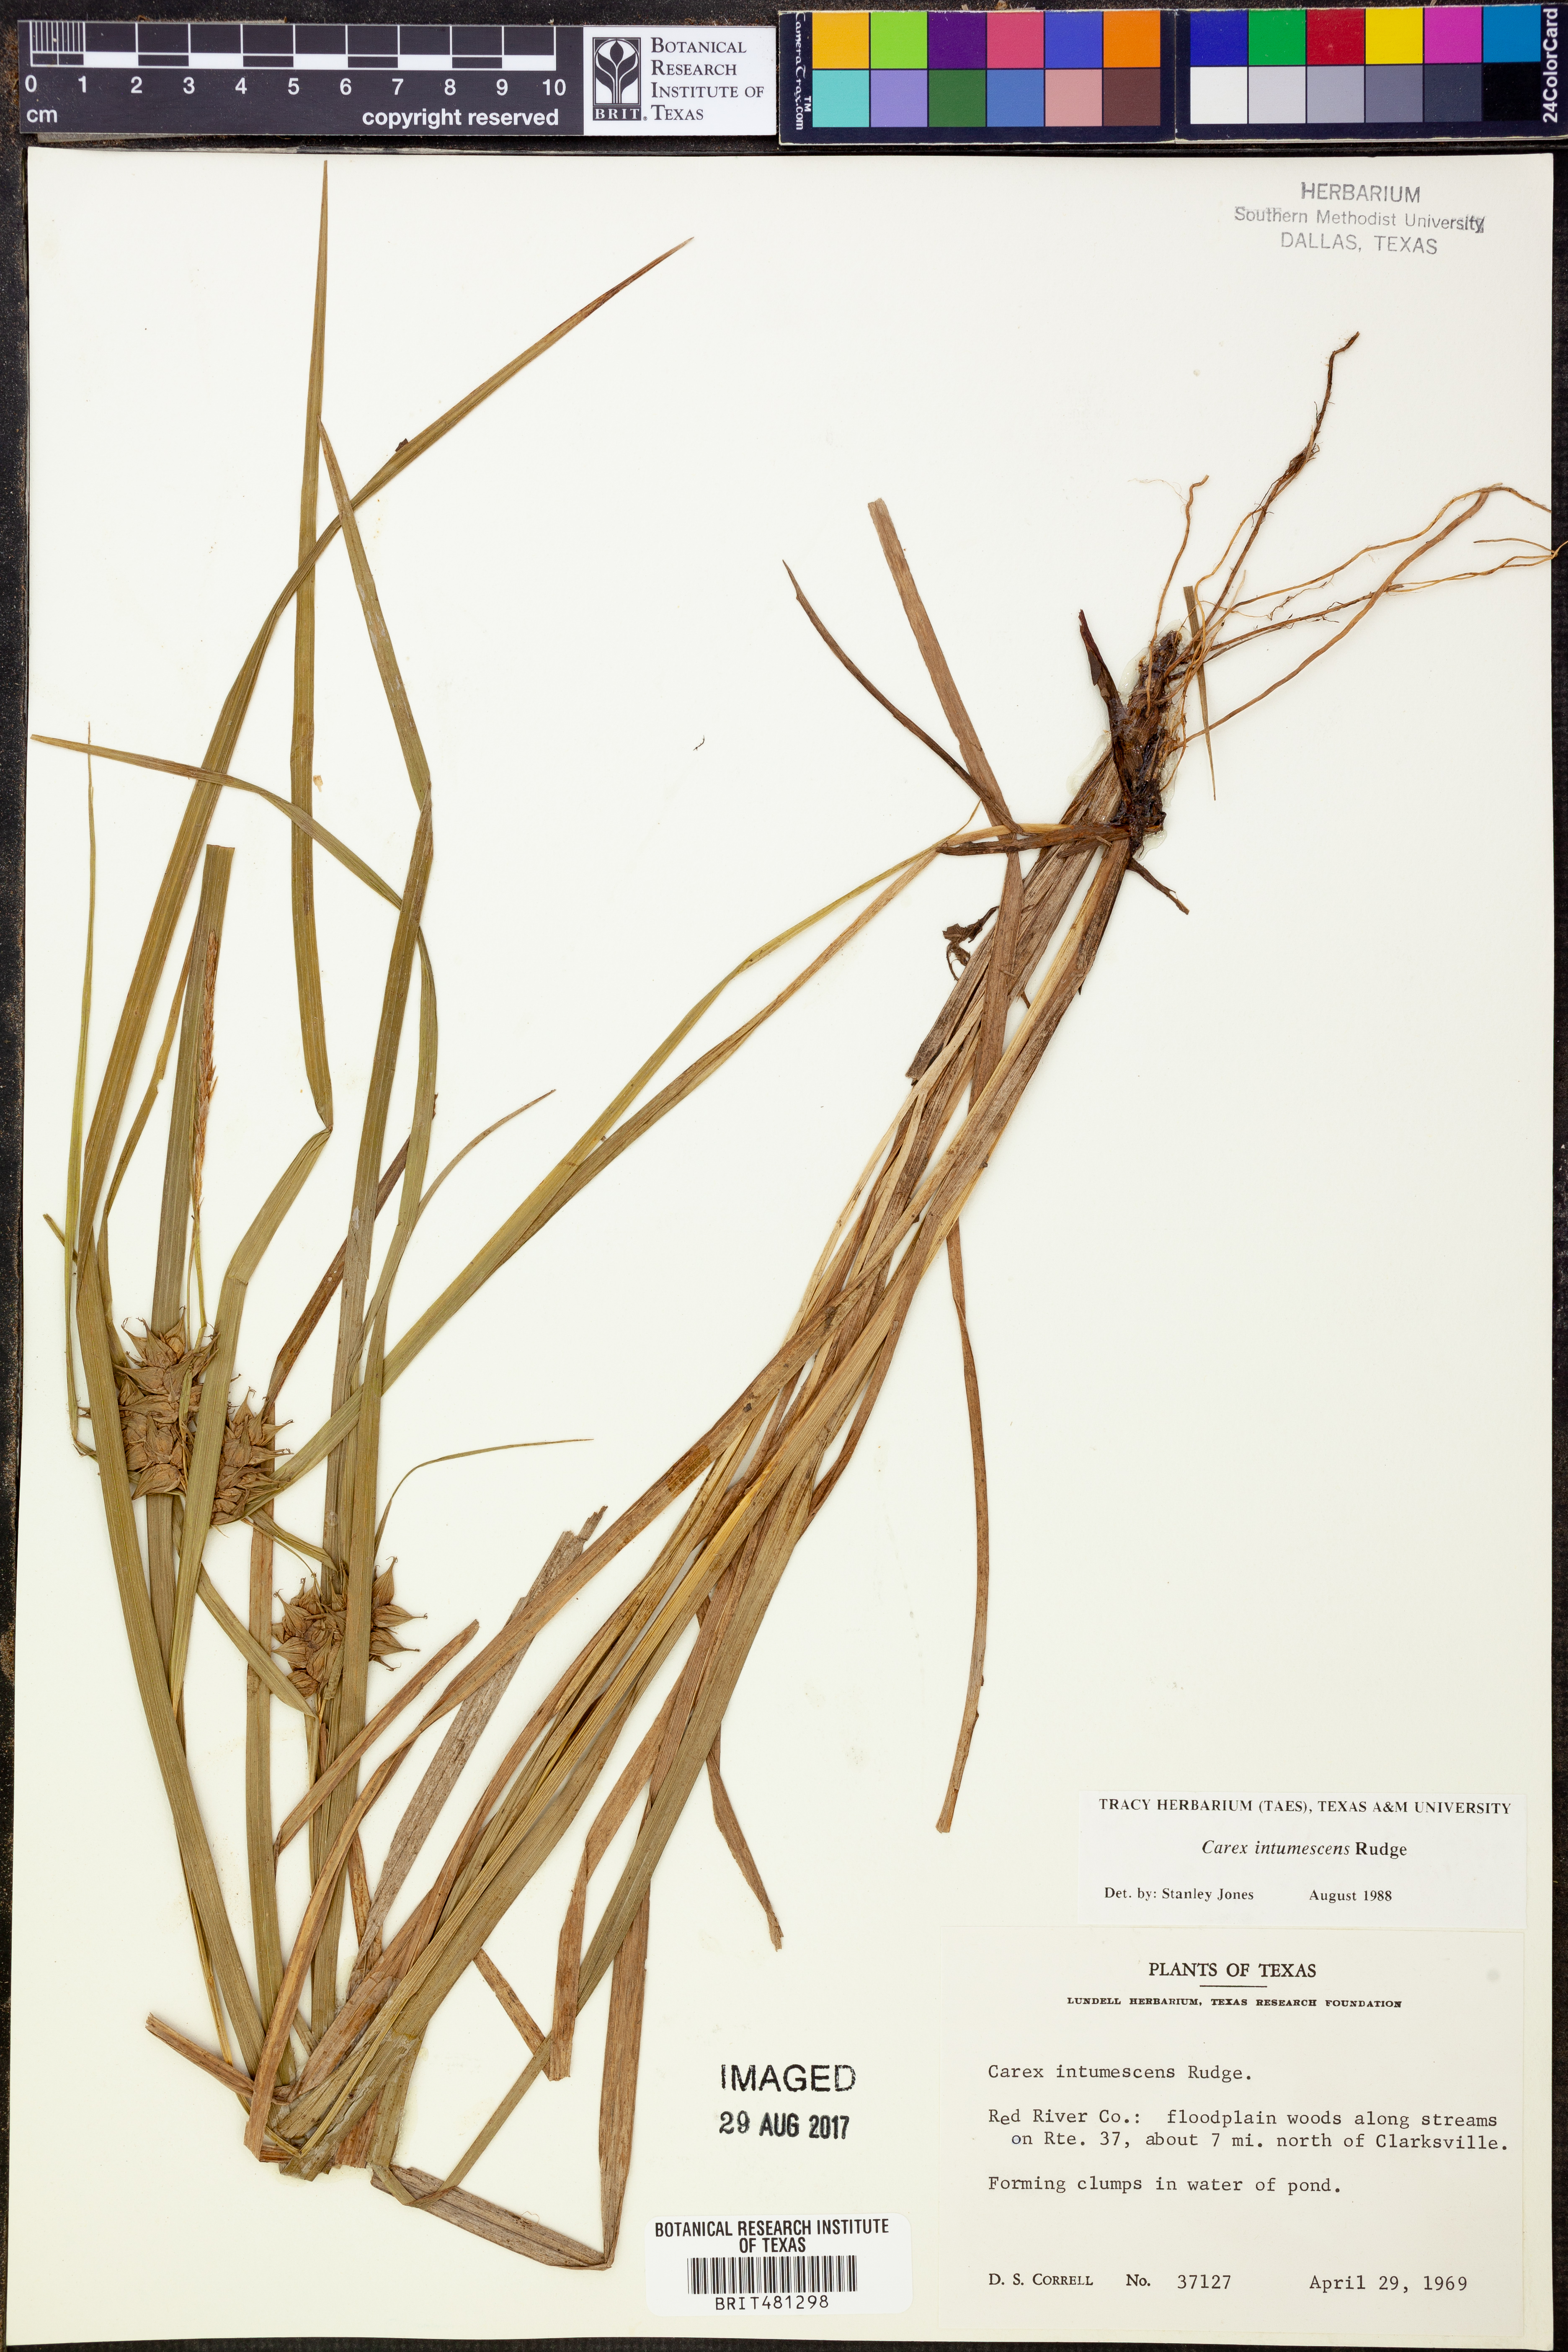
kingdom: Plantae
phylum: Tracheophyta
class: Liliopsida
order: Poales
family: Cyperaceae
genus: Carex
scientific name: Carex intumescens
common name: Greater bladder sedge
